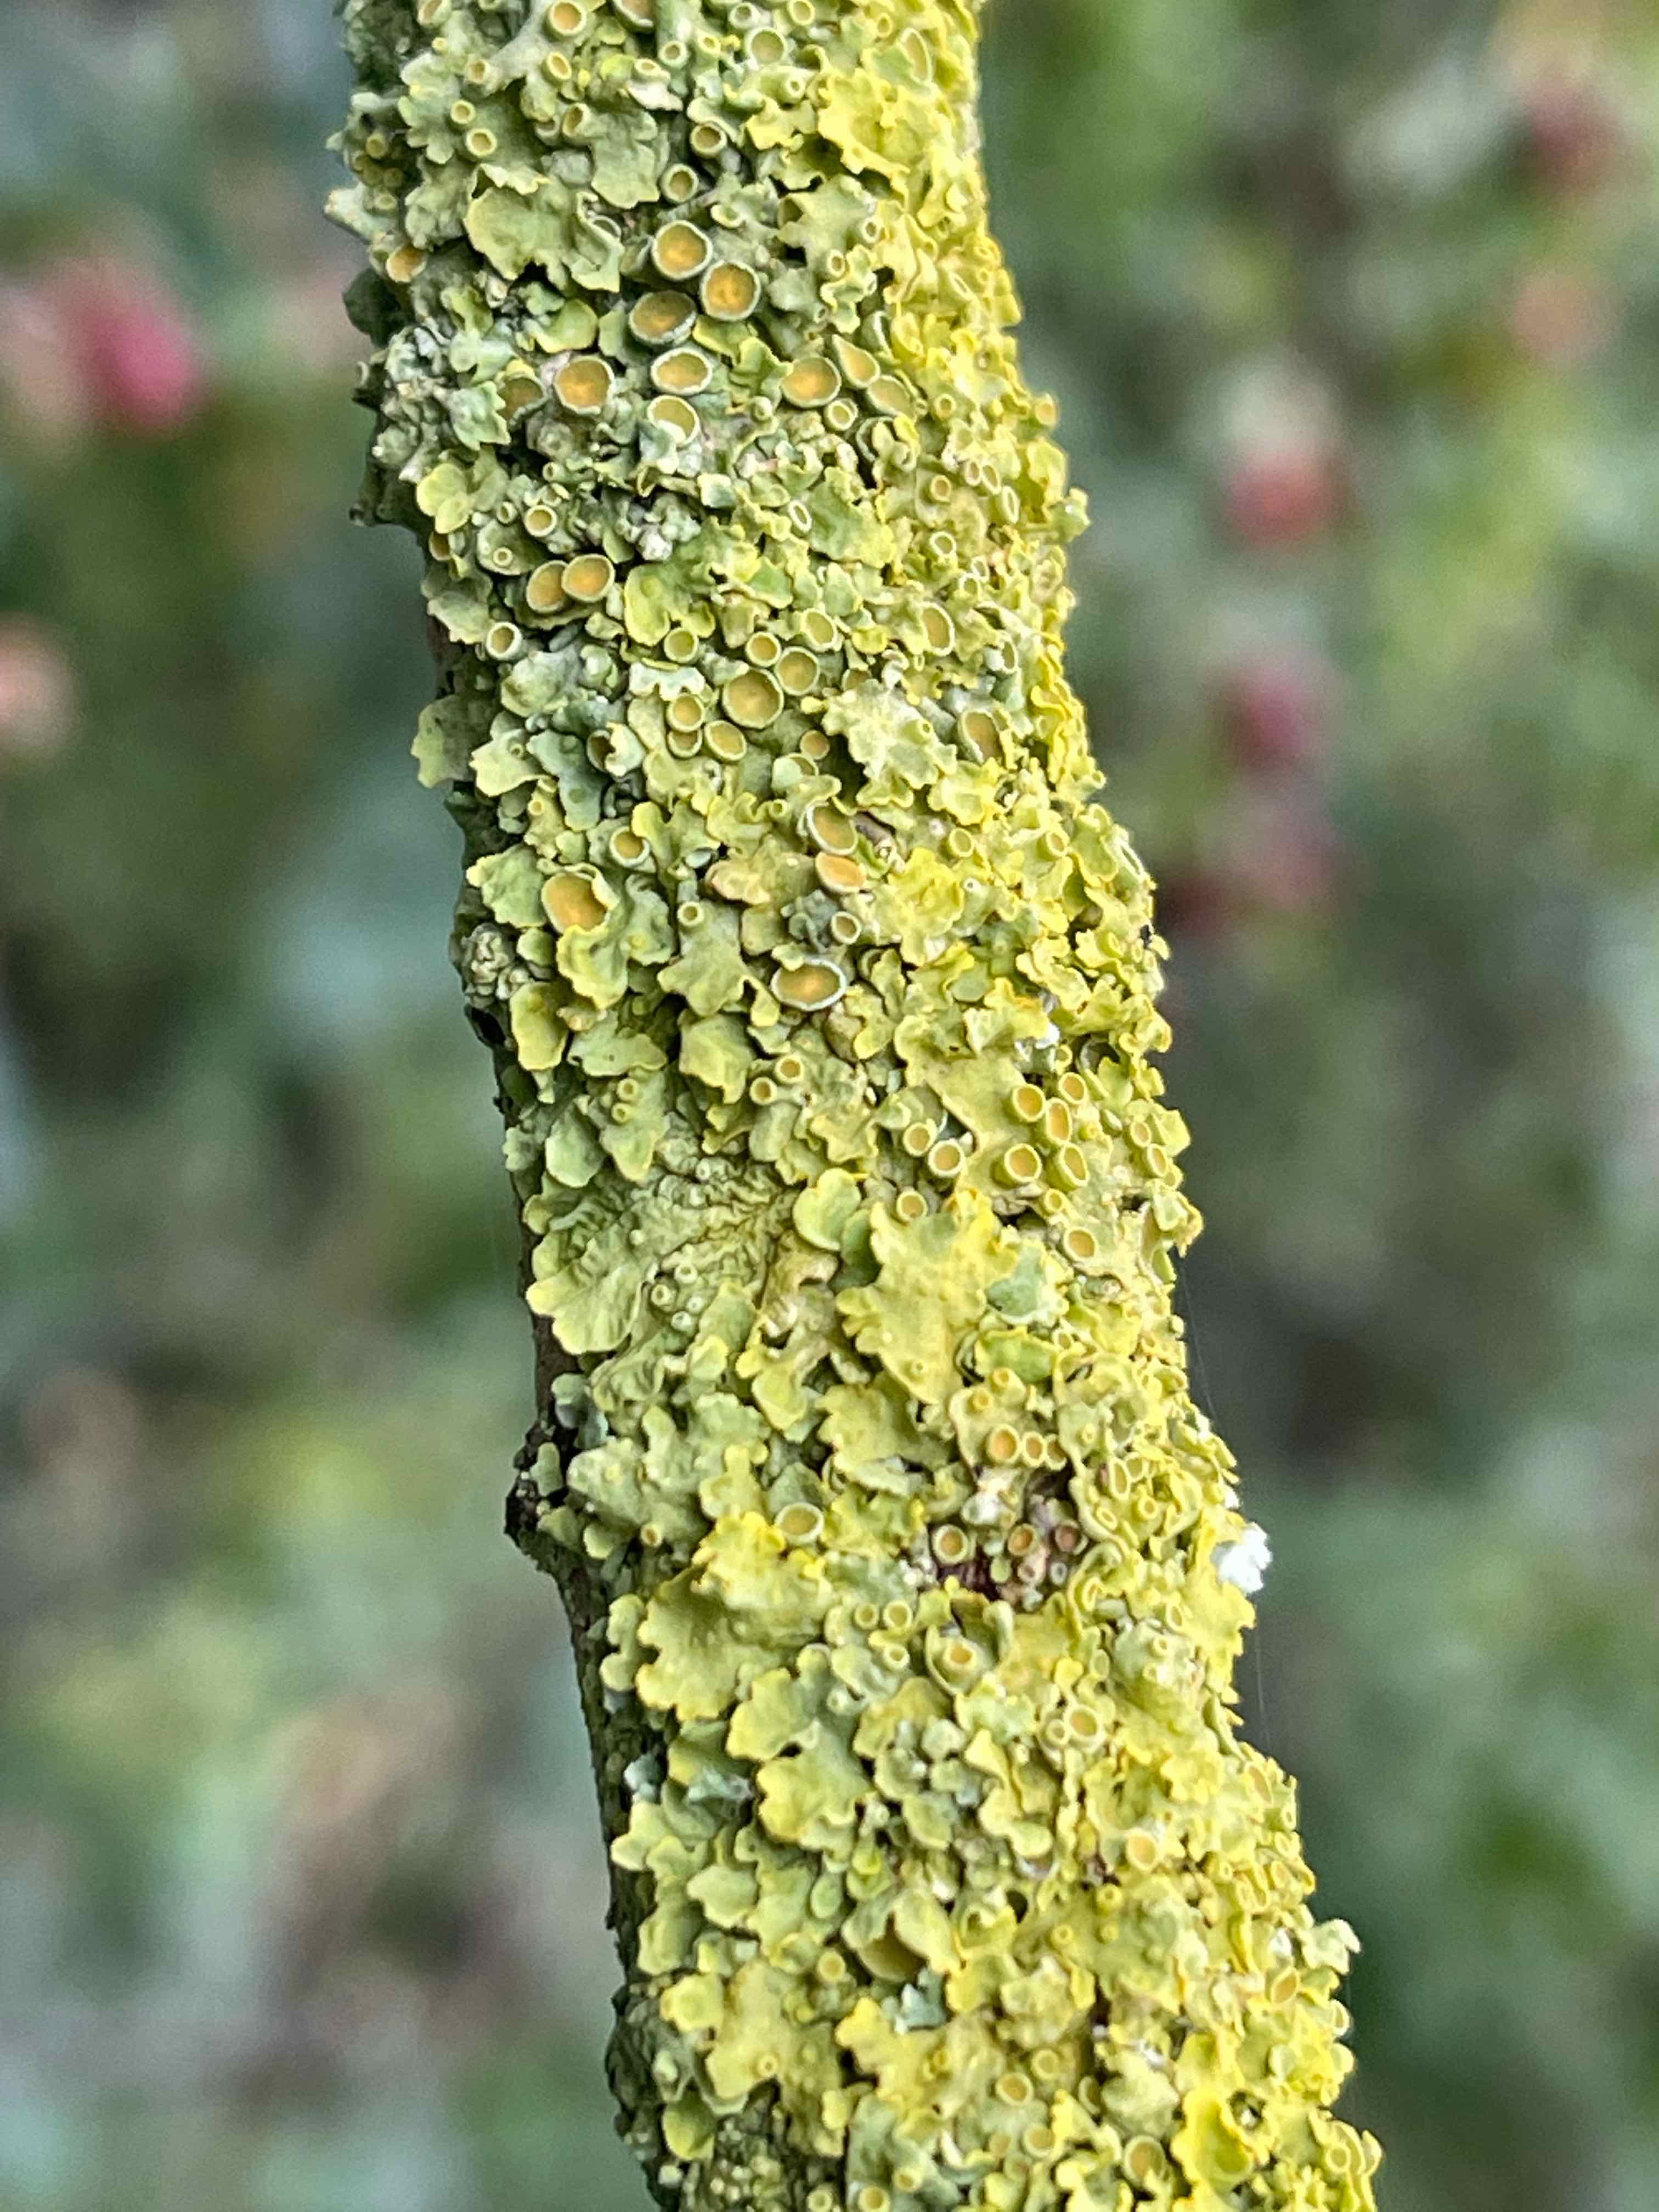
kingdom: Fungi
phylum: Ascomycota
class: Lecanoromycetes
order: Teloschistales
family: Teloschistaceae
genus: Xanthoria
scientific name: Xanthoria parietina
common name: almindelig væggelav
